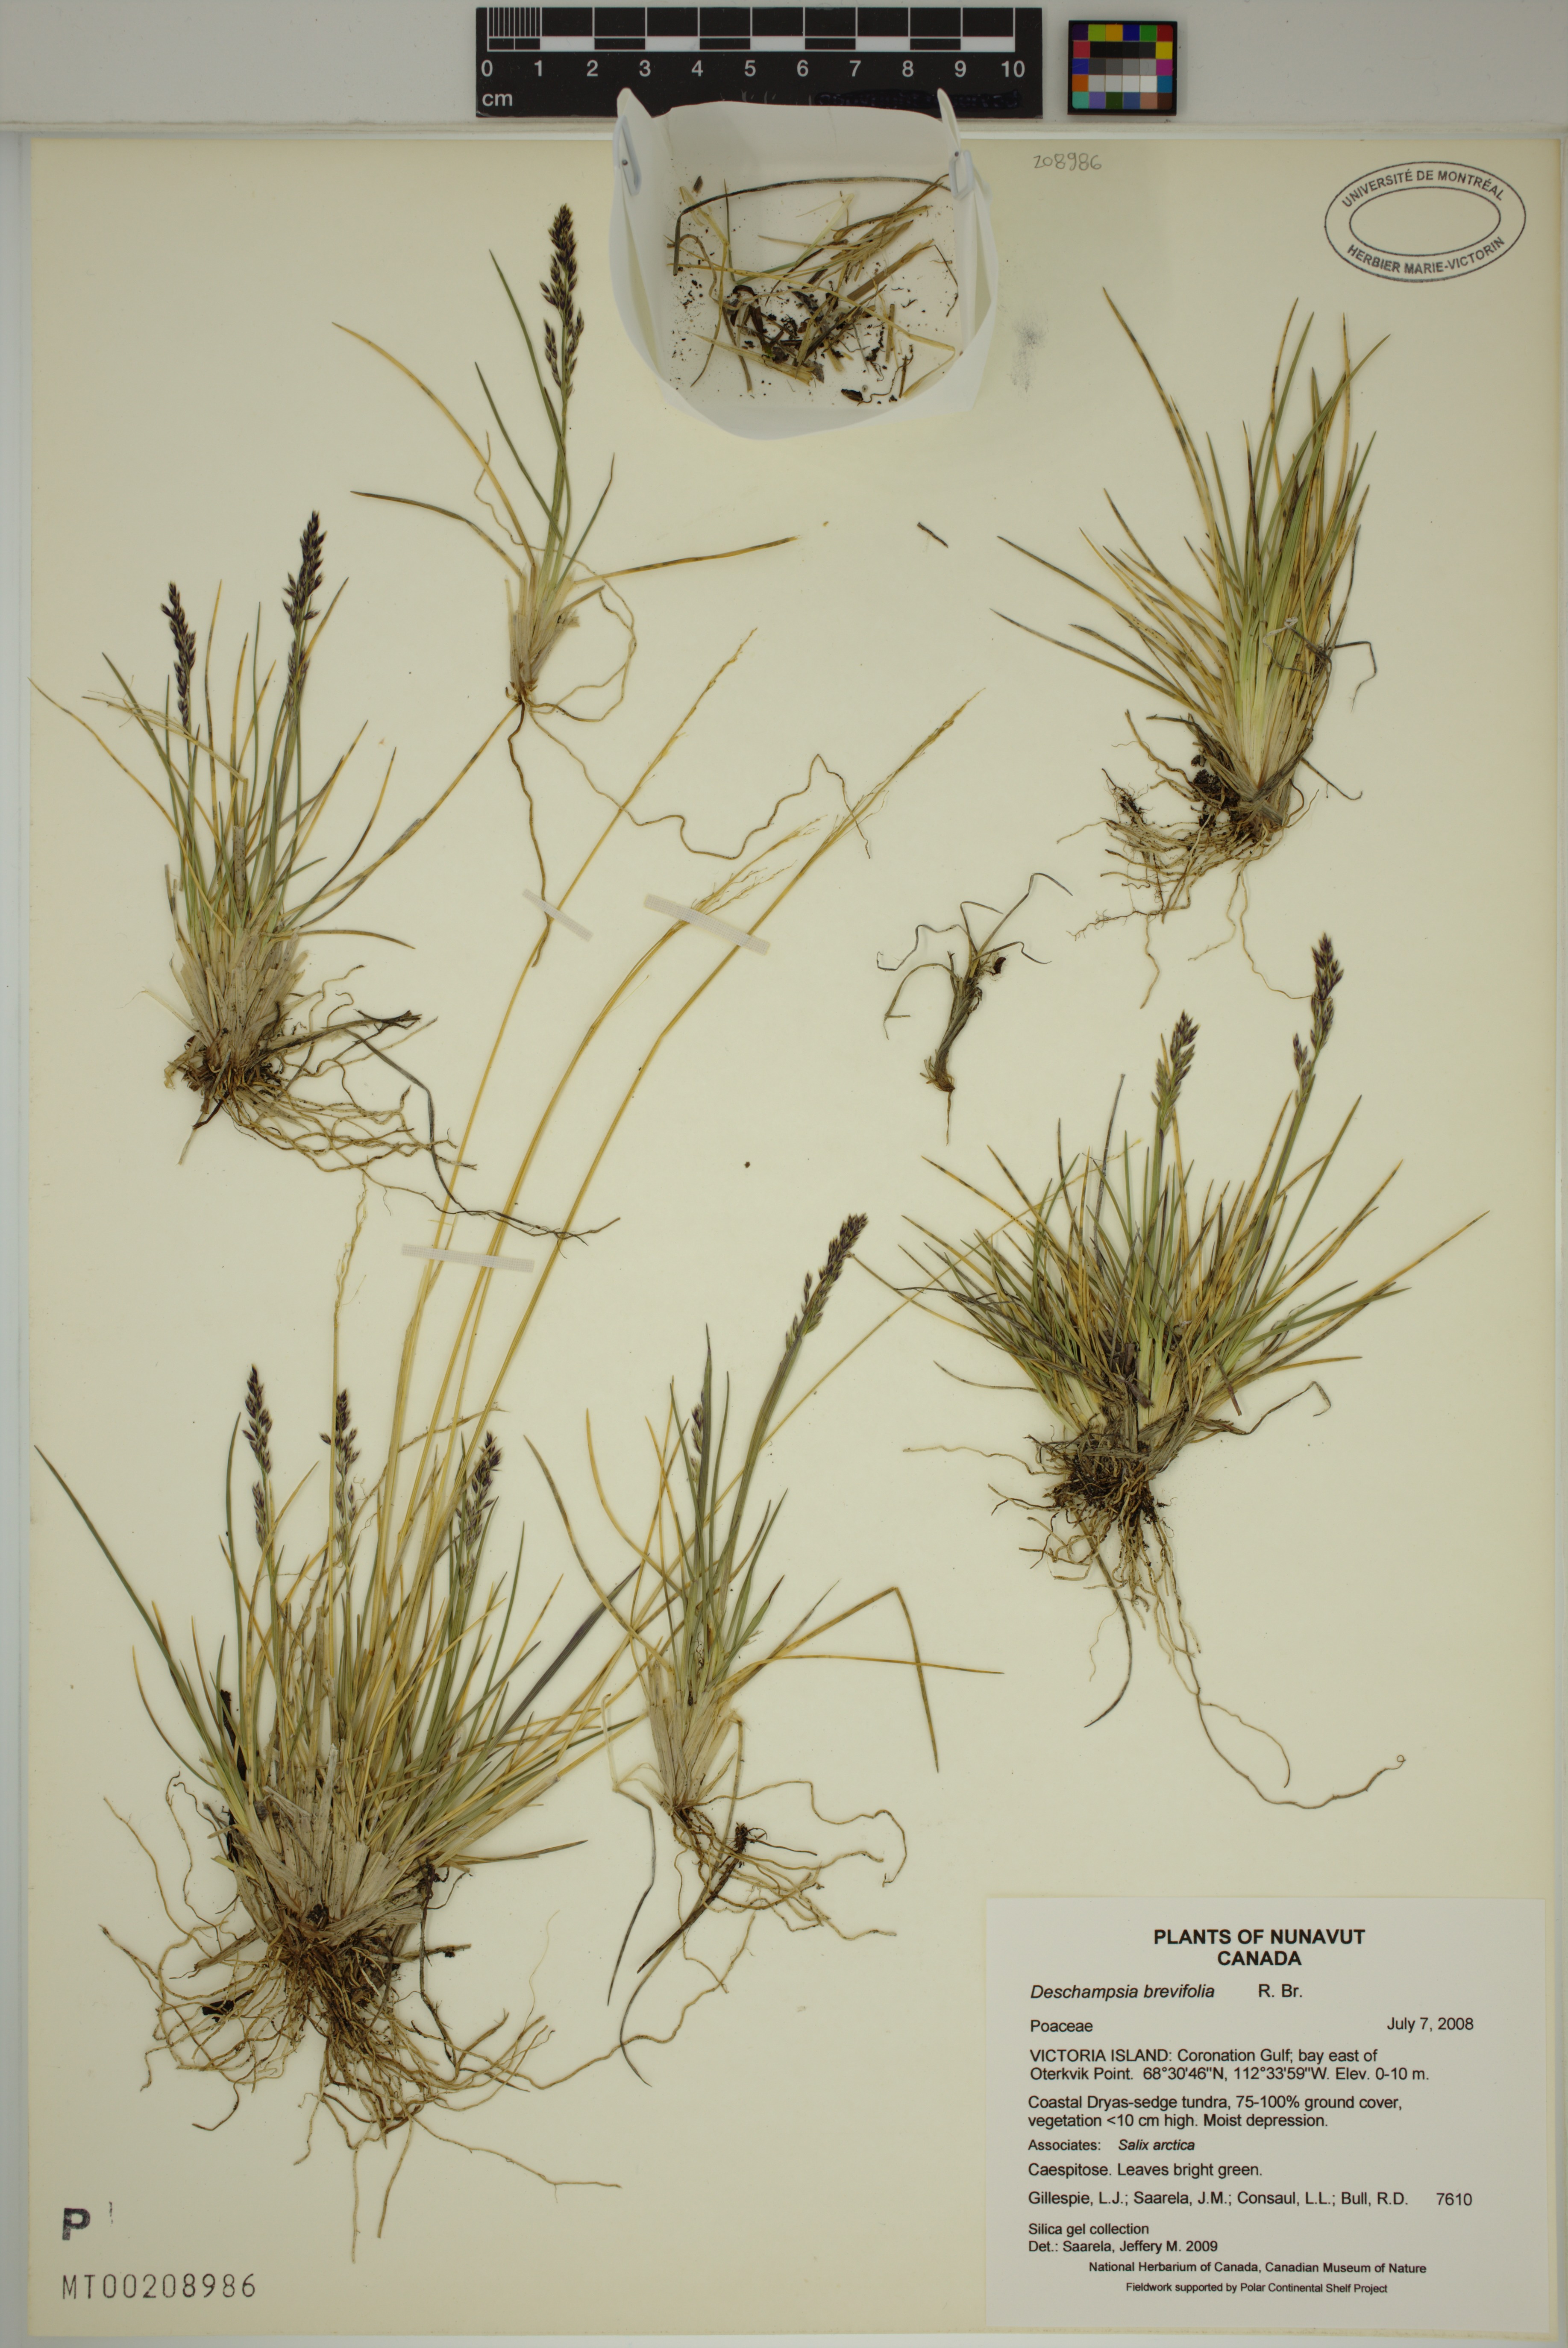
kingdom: Plantae
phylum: Tracheophyta
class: Liliopsida
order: Poales
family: Poaceae
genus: Deschampsia
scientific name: Deschampsia cespitosa
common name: Tufted hair-grass
